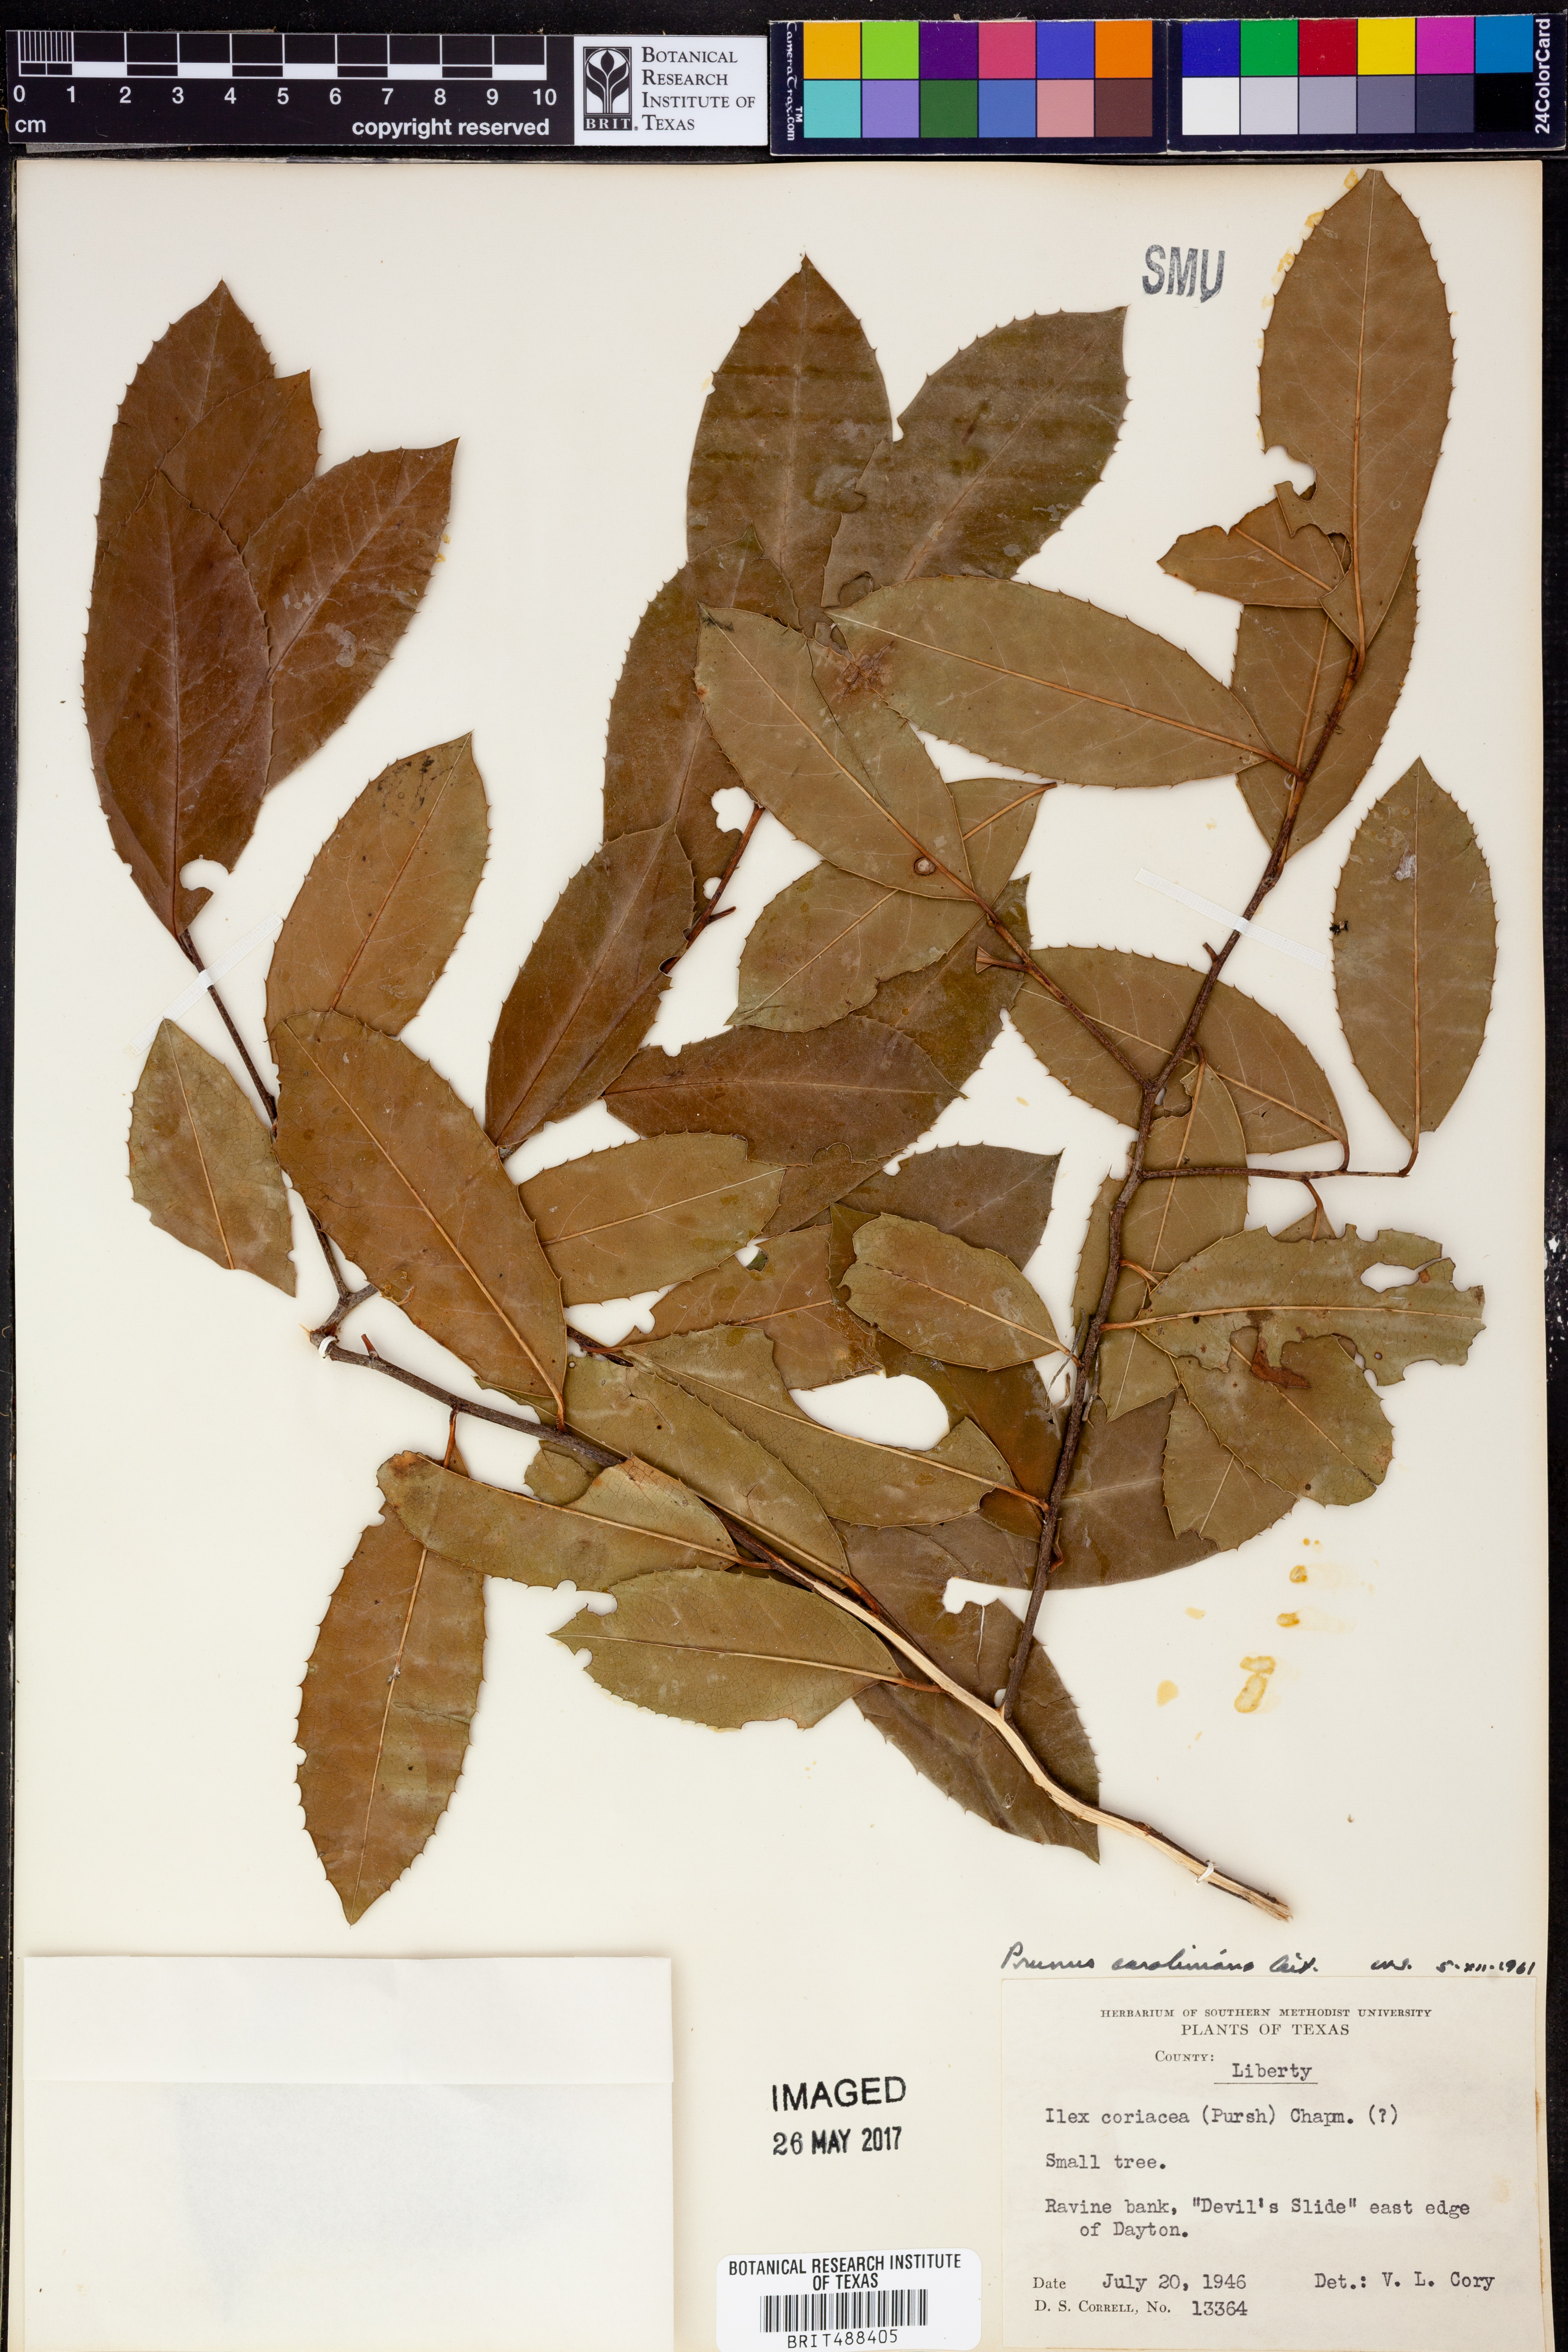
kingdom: Plantae
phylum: Tracheophyta
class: Magnoliopsida
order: Rosales
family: Rosaceae
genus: Prunus
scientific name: Prunus caroliniana
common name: Carolina laurel cherry
